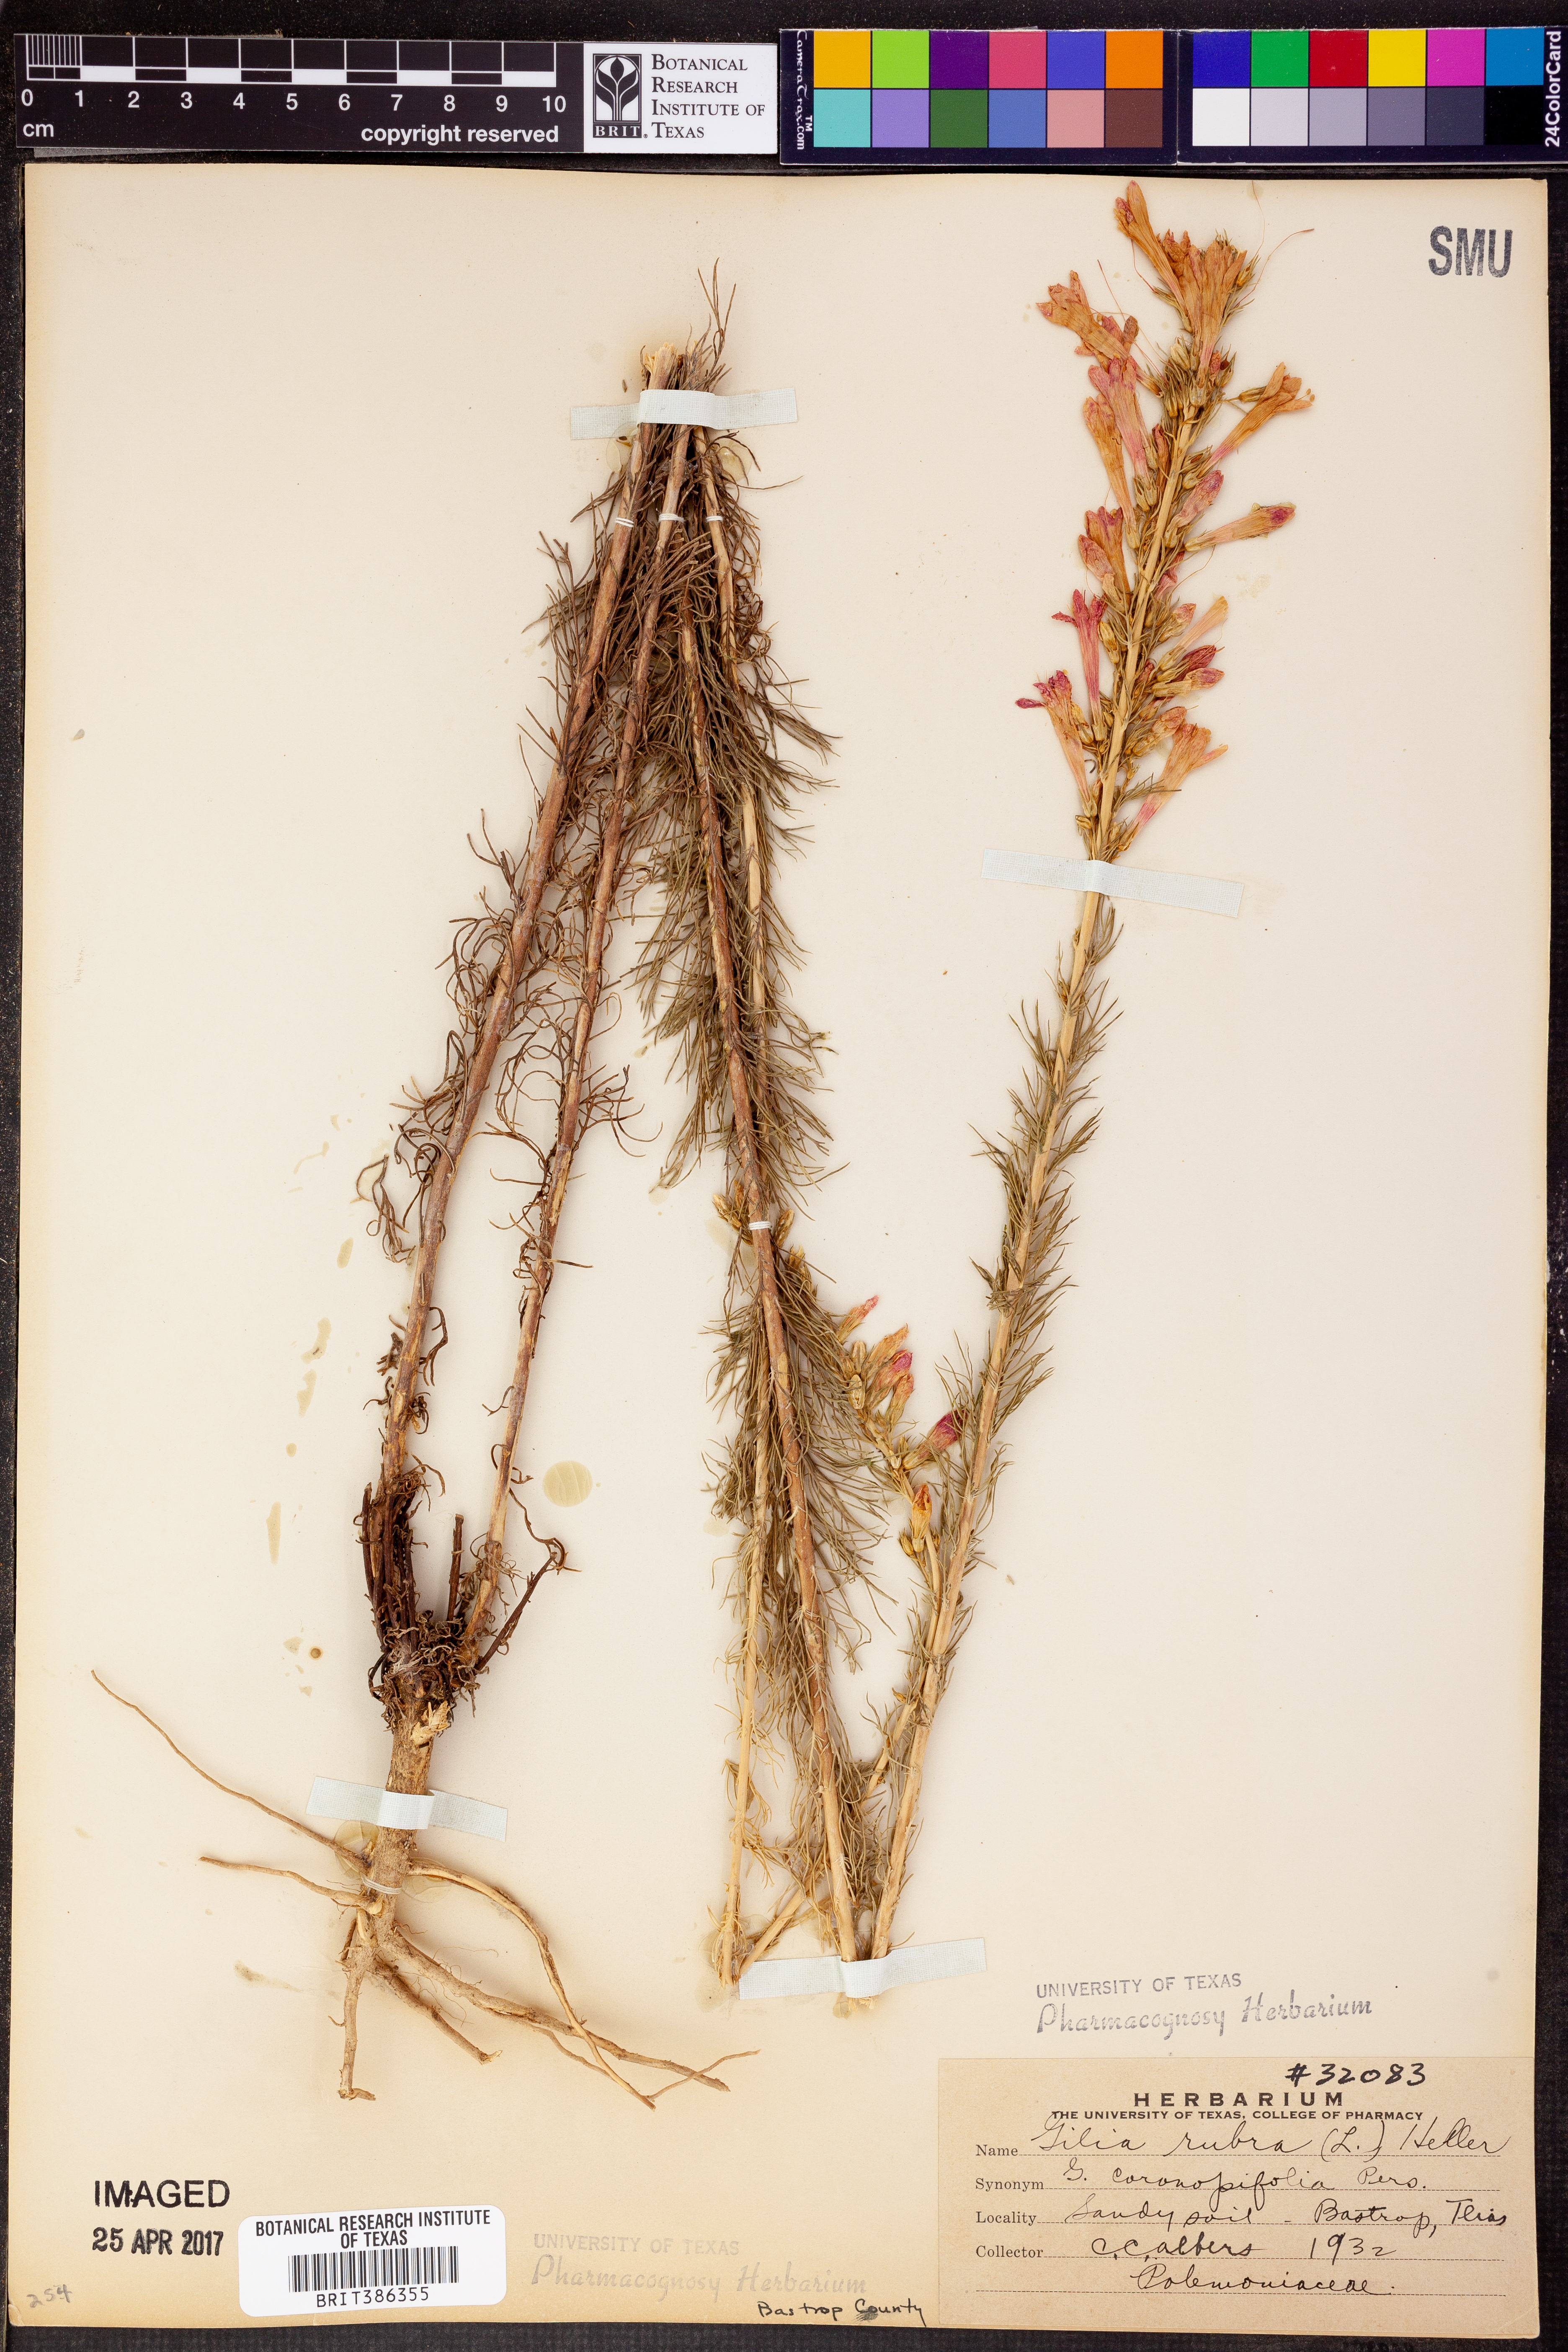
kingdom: Plantae
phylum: Tracheophyta
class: Magnoliopsida
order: Ericales
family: Polemoniaceae
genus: Ipomopsis
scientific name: Ipomopsis rubra
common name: Skyrocket
